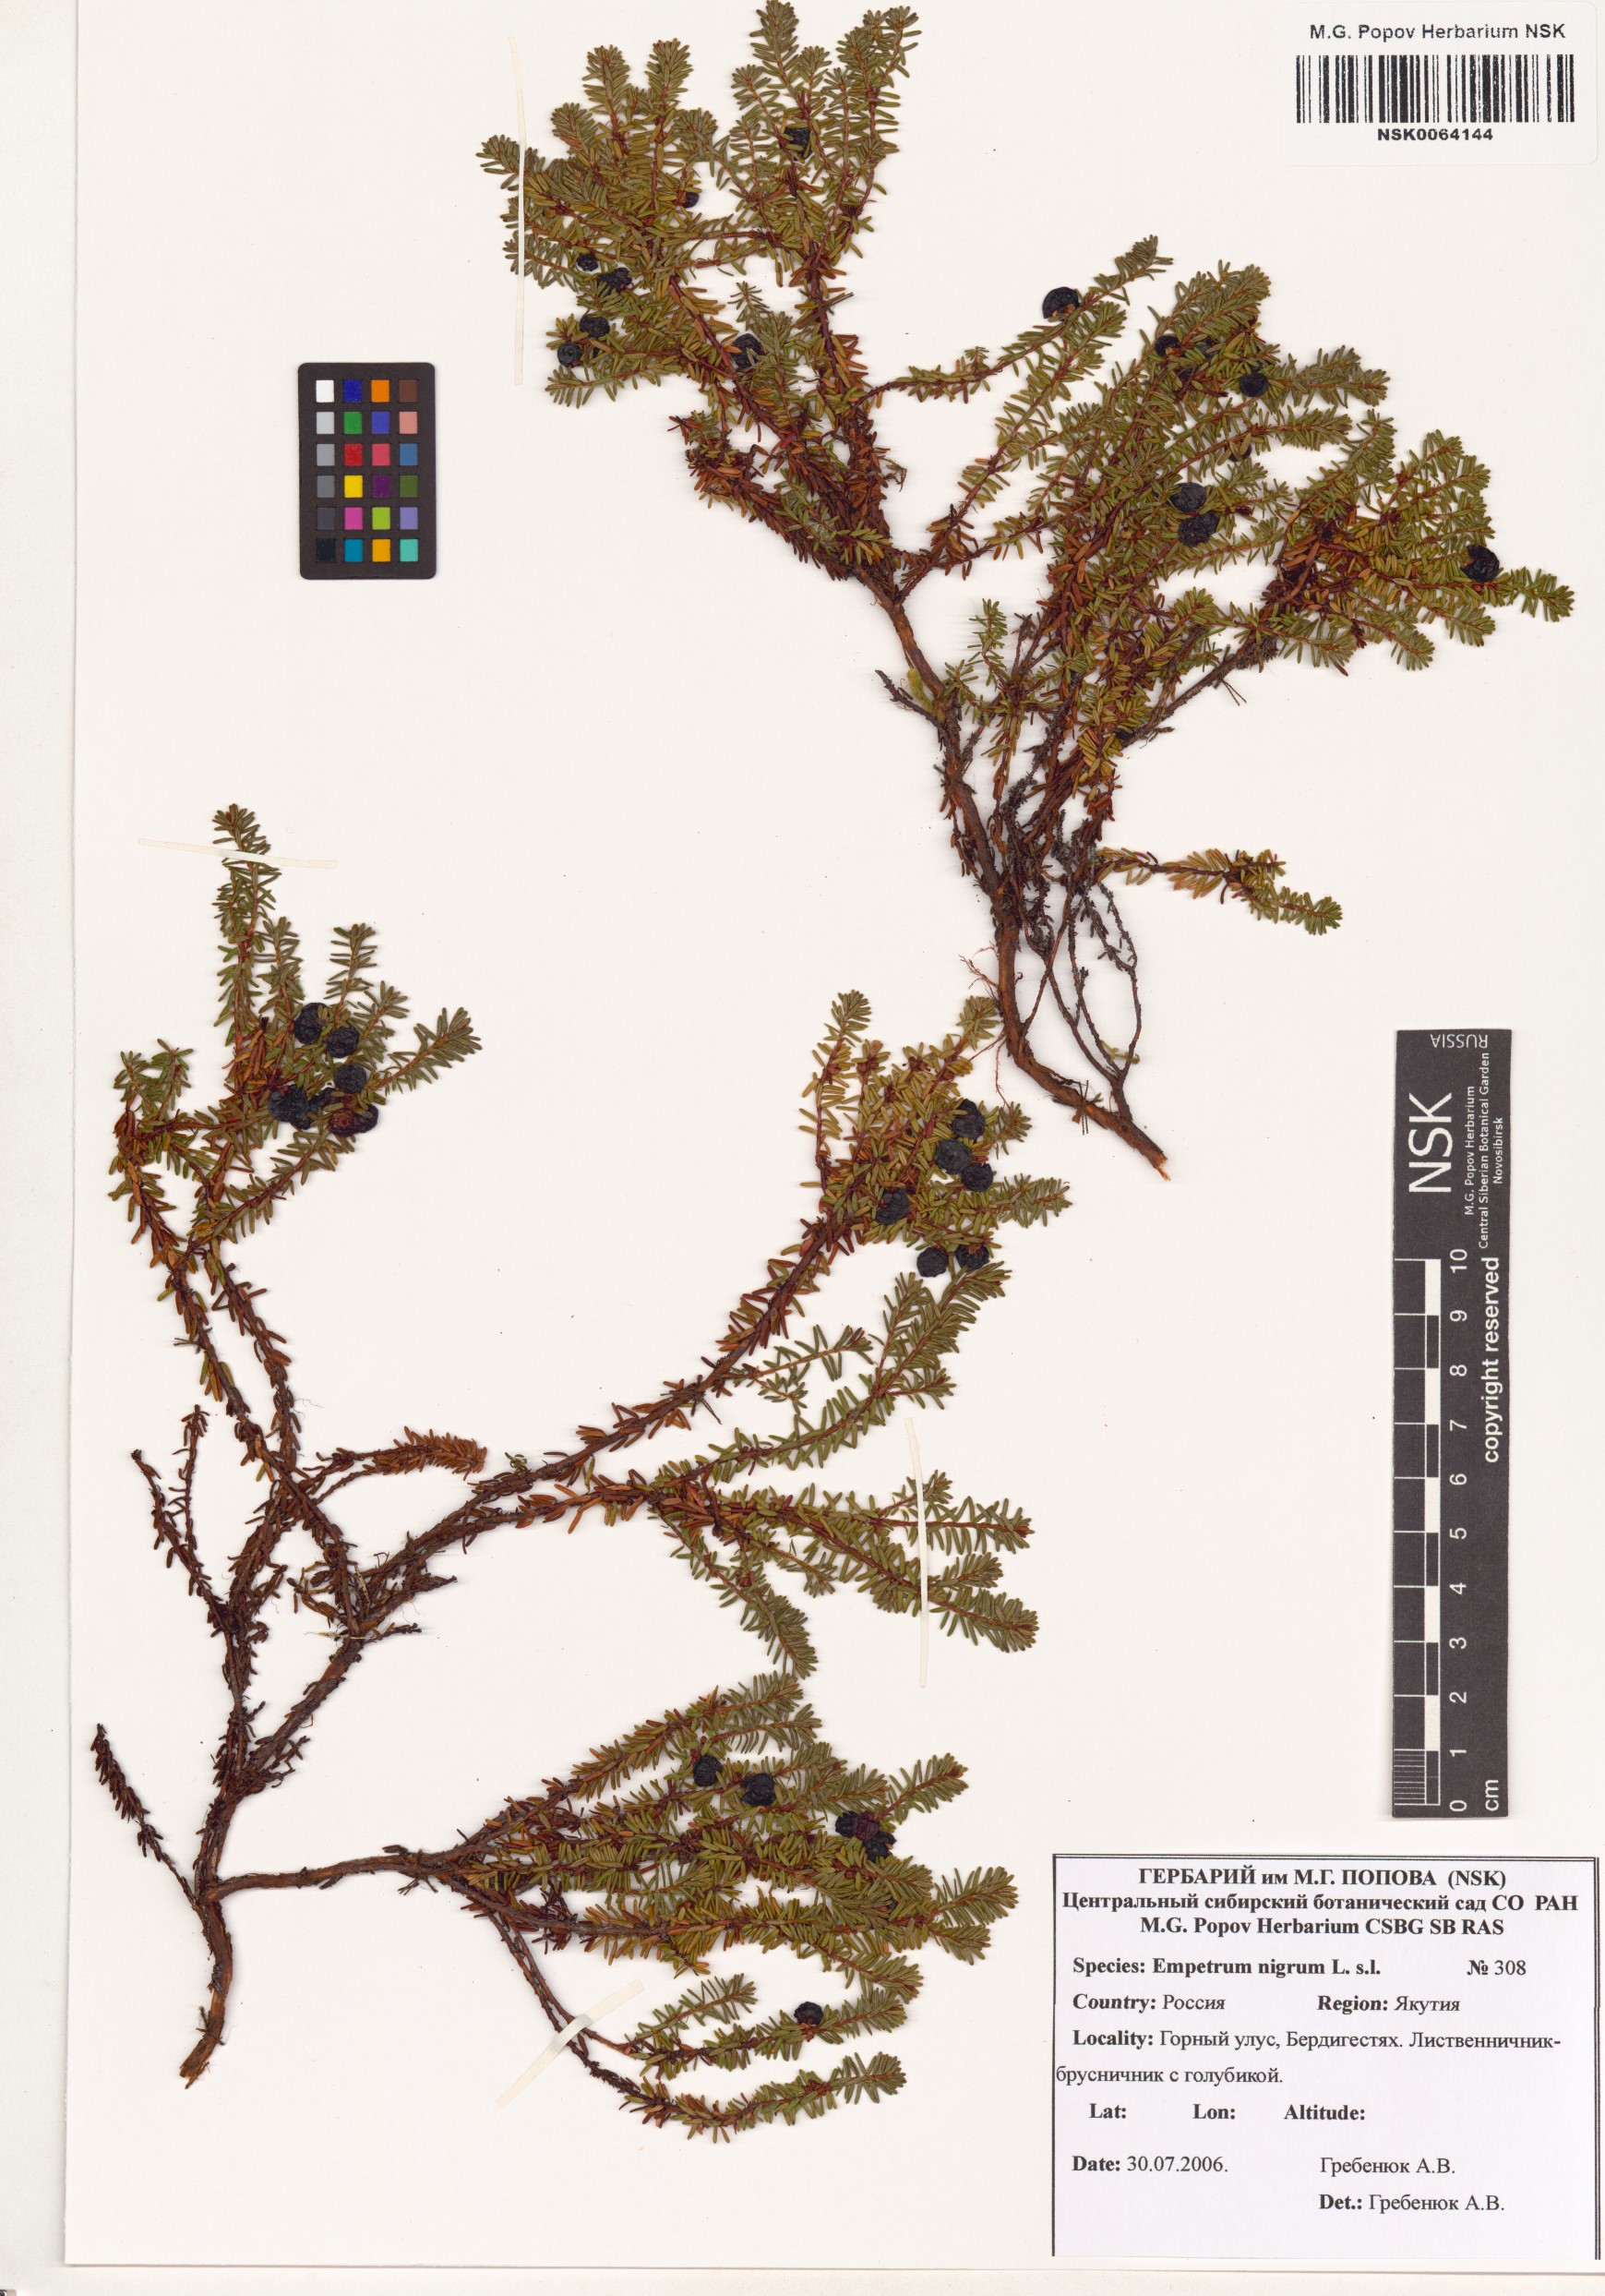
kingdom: Plantae
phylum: Tracheophyta
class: Magnoliopsida
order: Ericales
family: Ericaceae
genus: Empetrum
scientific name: Empetrum nigrum
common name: Black crowberry
